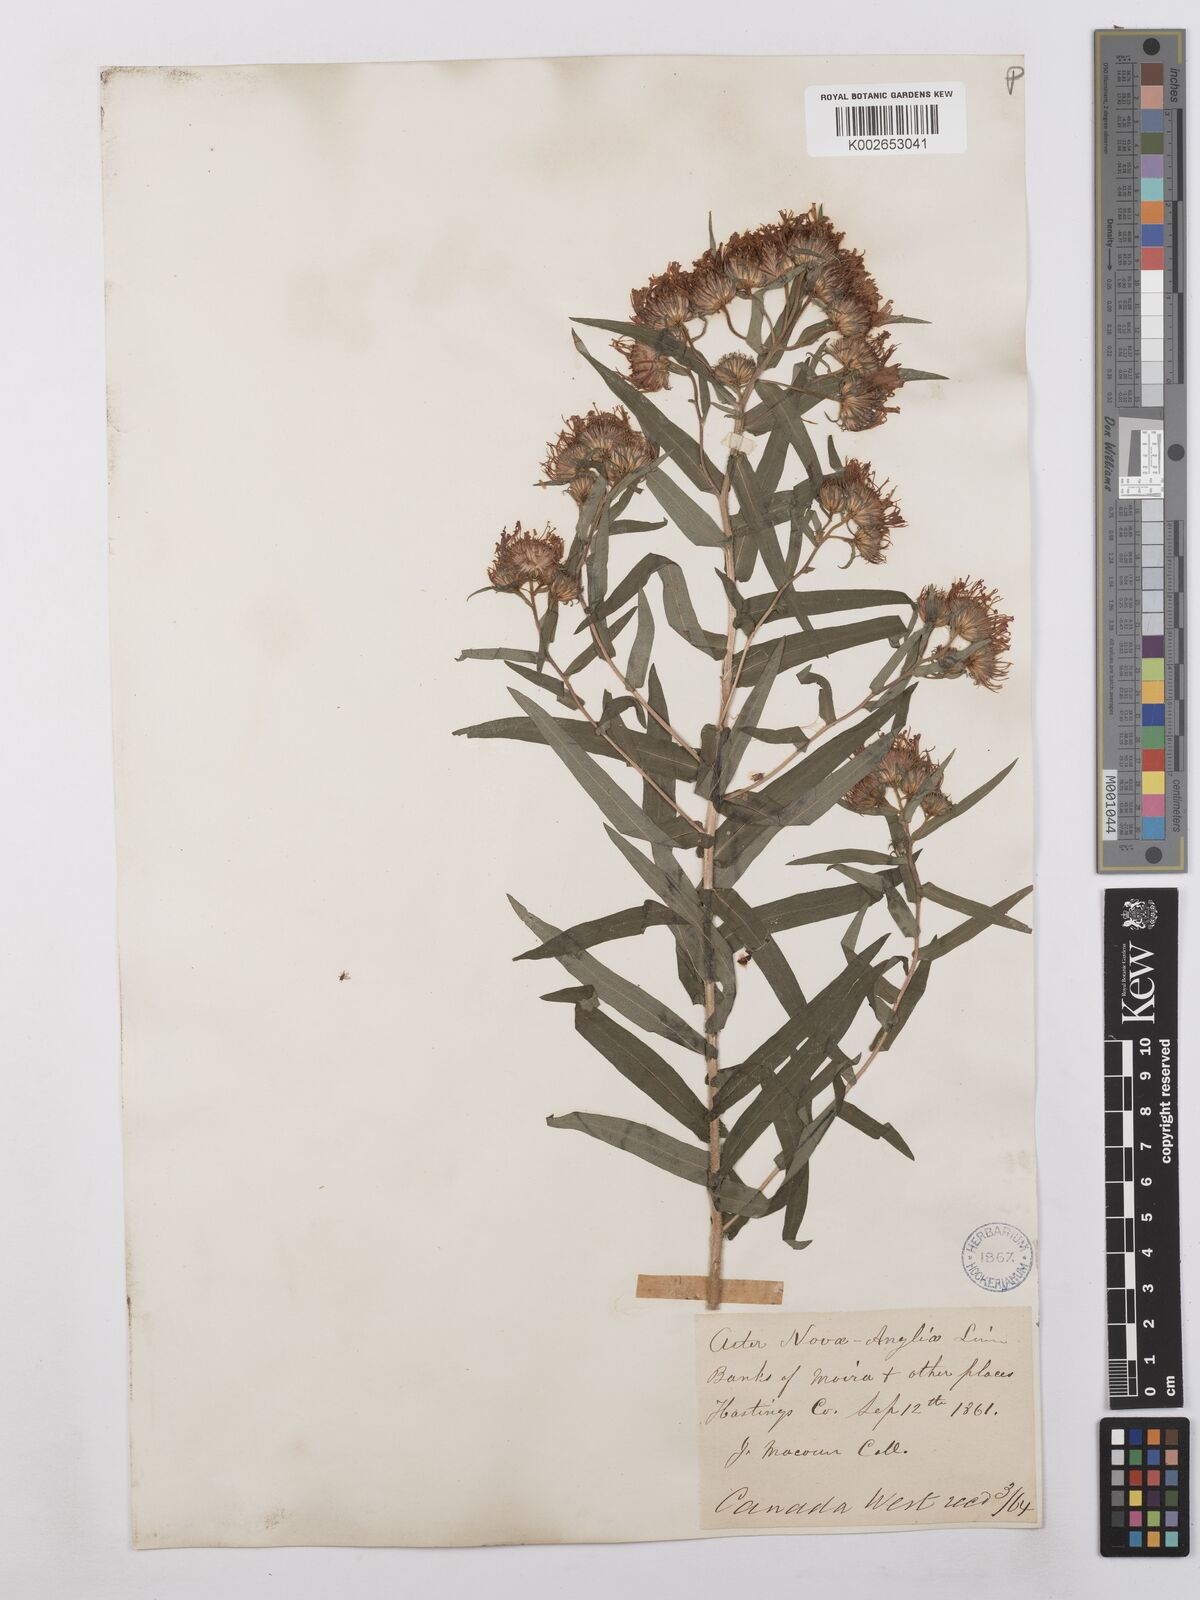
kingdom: Plantae
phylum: Tracheophyta
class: Magnoliopsida
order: Asterales
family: Asteraceae
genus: Symphyotrichum
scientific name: Symphyotrichum novae-angliae
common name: Michaelmas daisy
